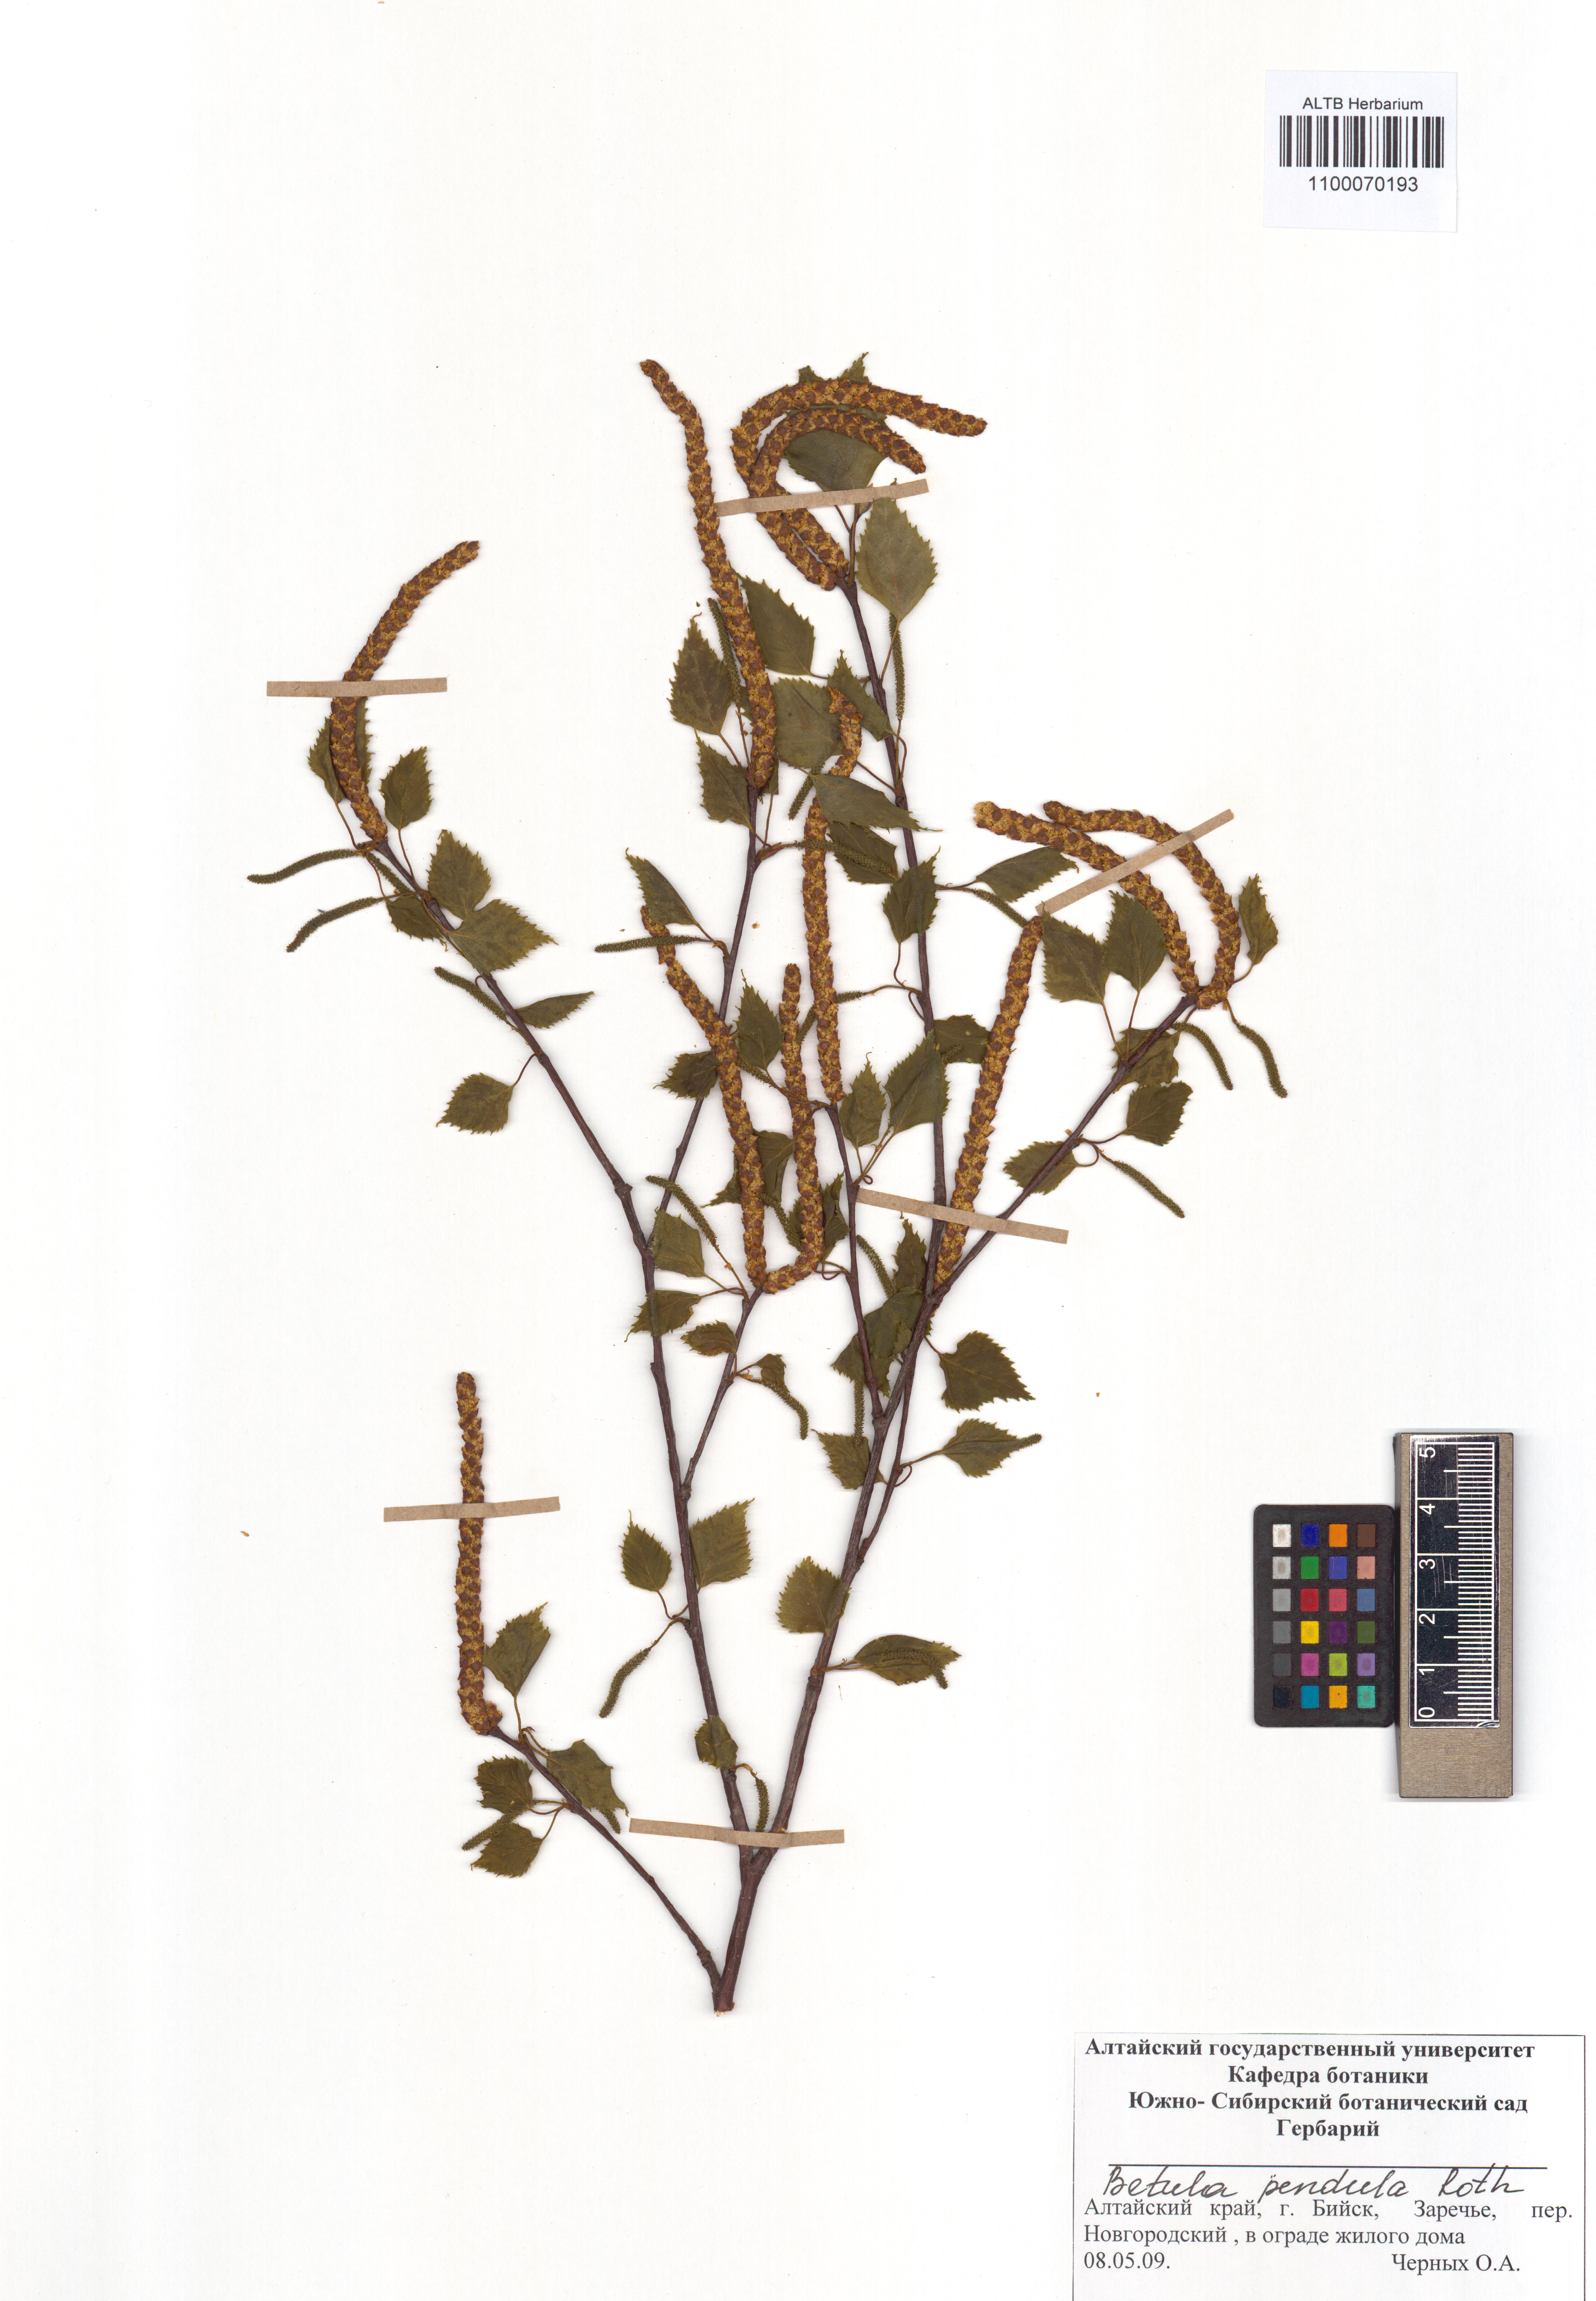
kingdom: Plantae
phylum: Tracheophyta
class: Magnoliopsida
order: Fagales
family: Betulaceae
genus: Betula
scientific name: Betula pendula
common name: Silver birch
